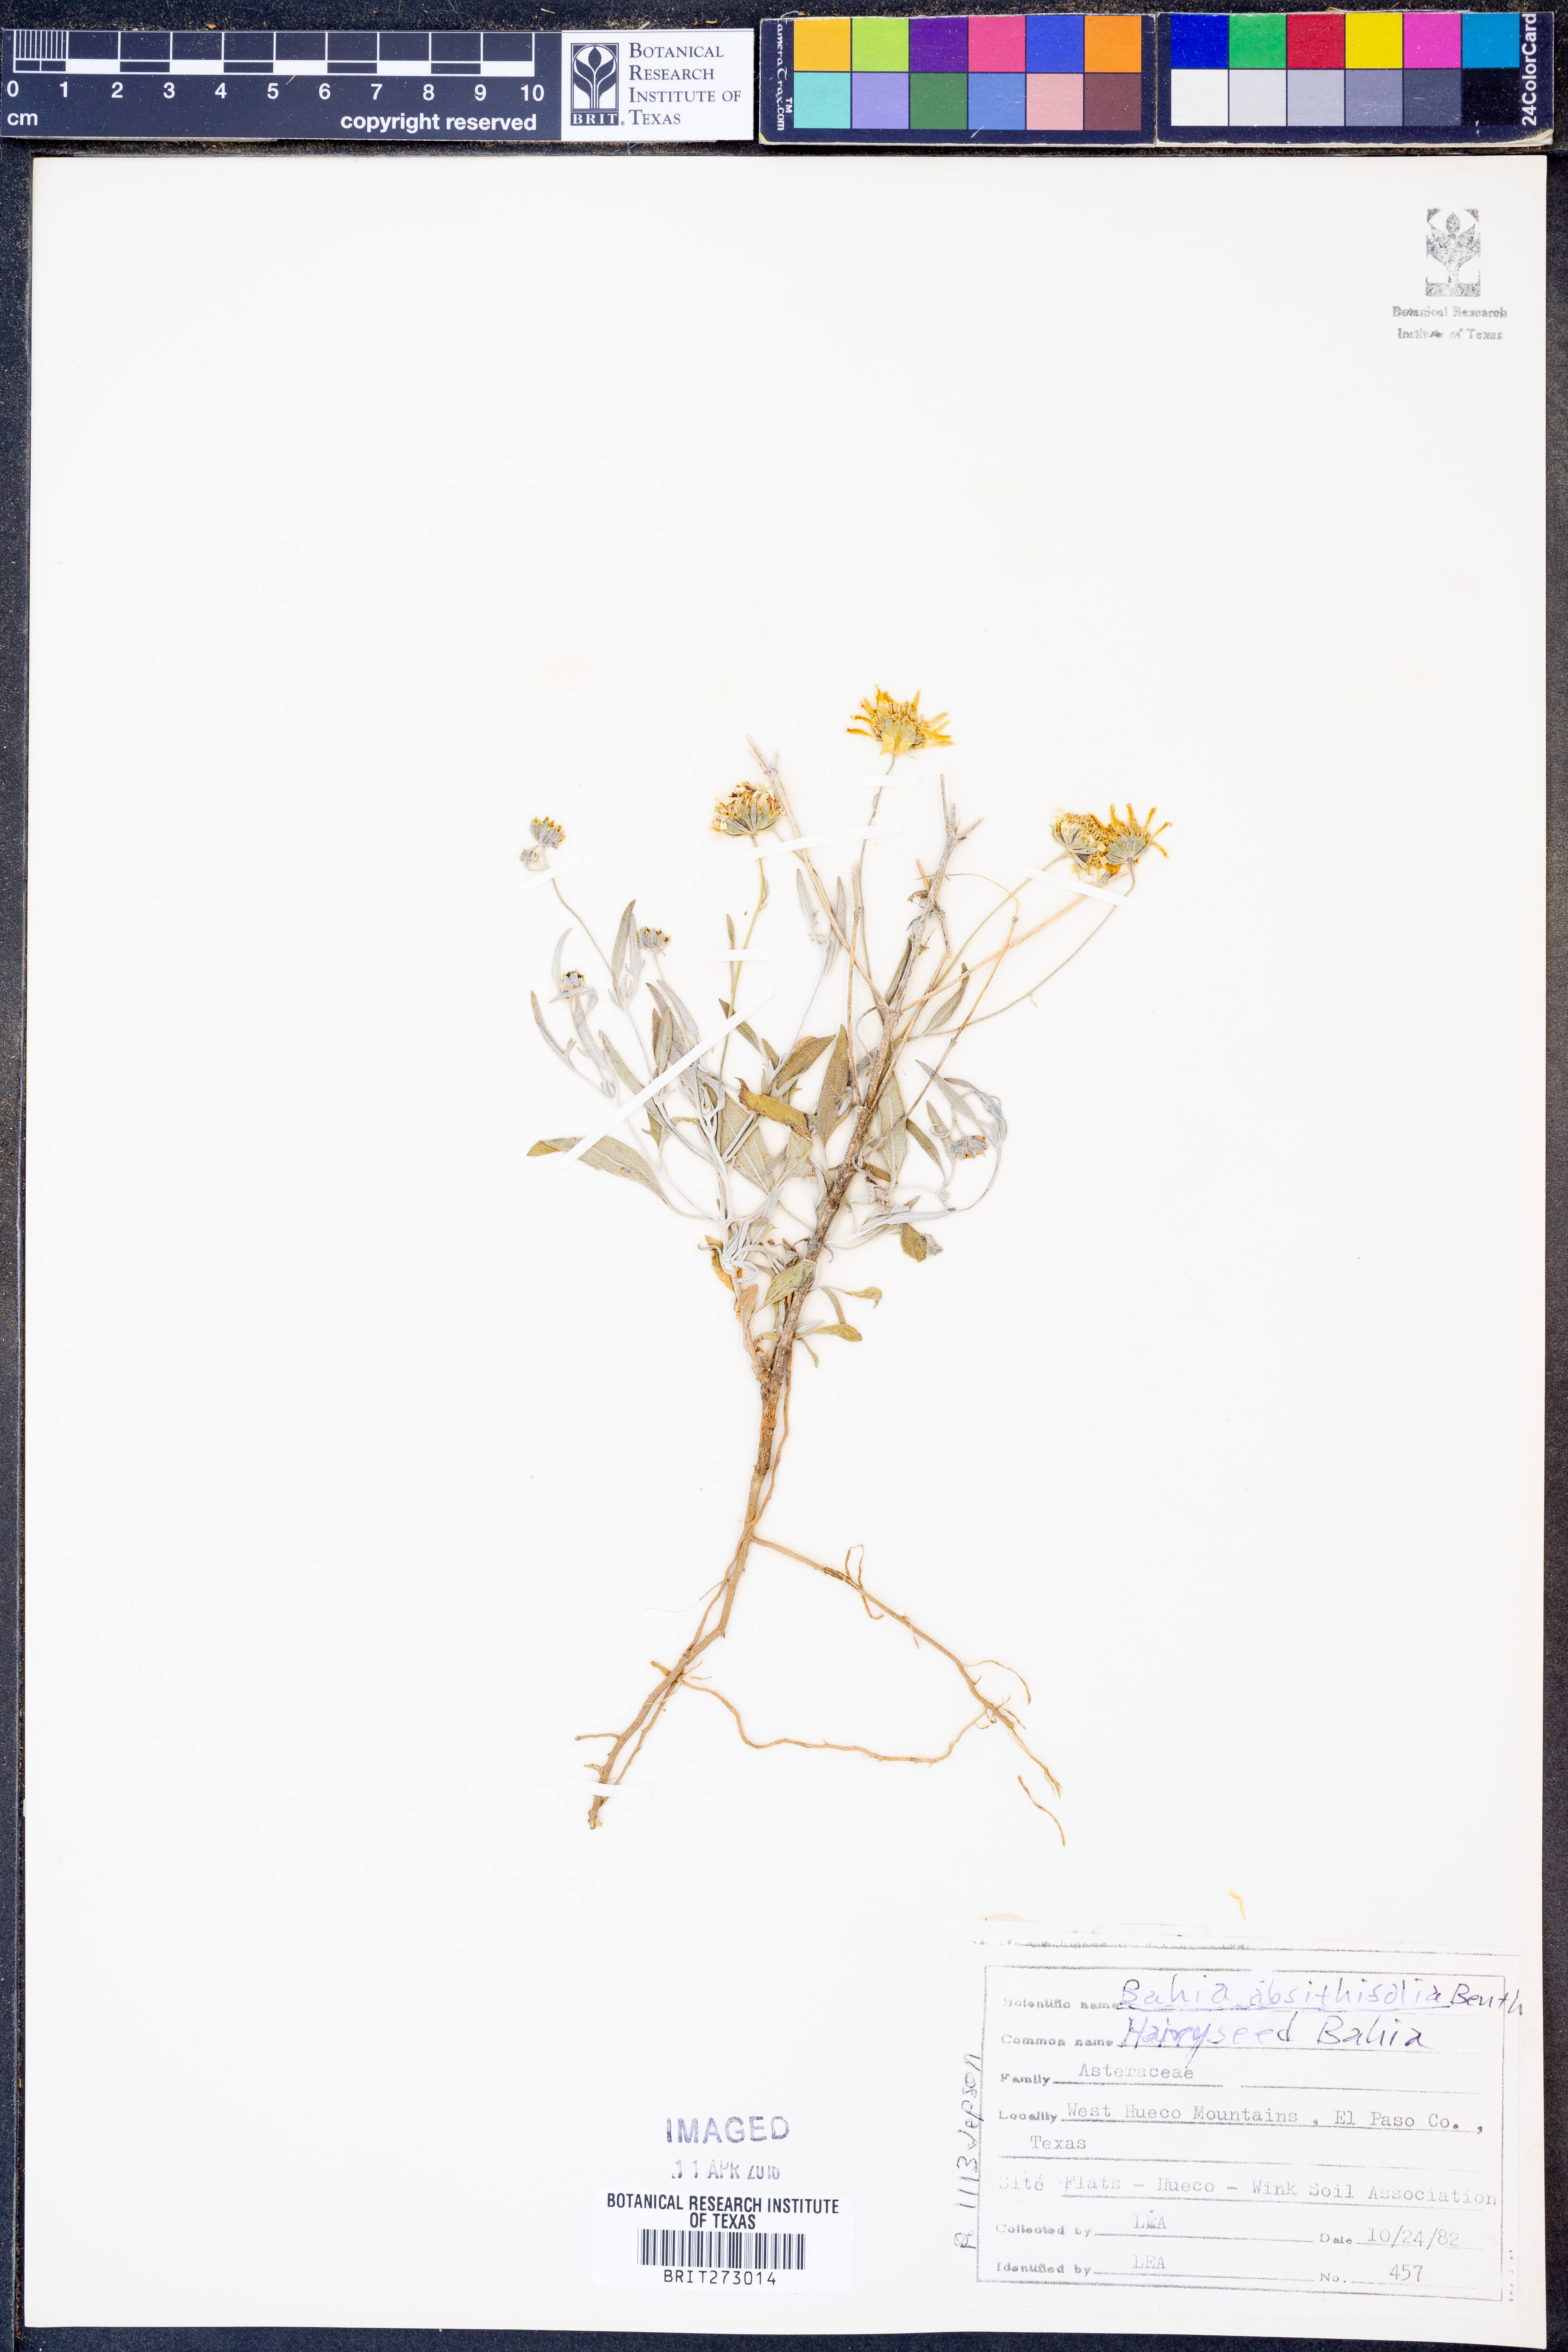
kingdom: Plantae
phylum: Tracheophyta
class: Magnoliopsida
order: Asterales
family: Asteraceae
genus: Picradeniopsis
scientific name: Picradeniopsis absinthifolia
